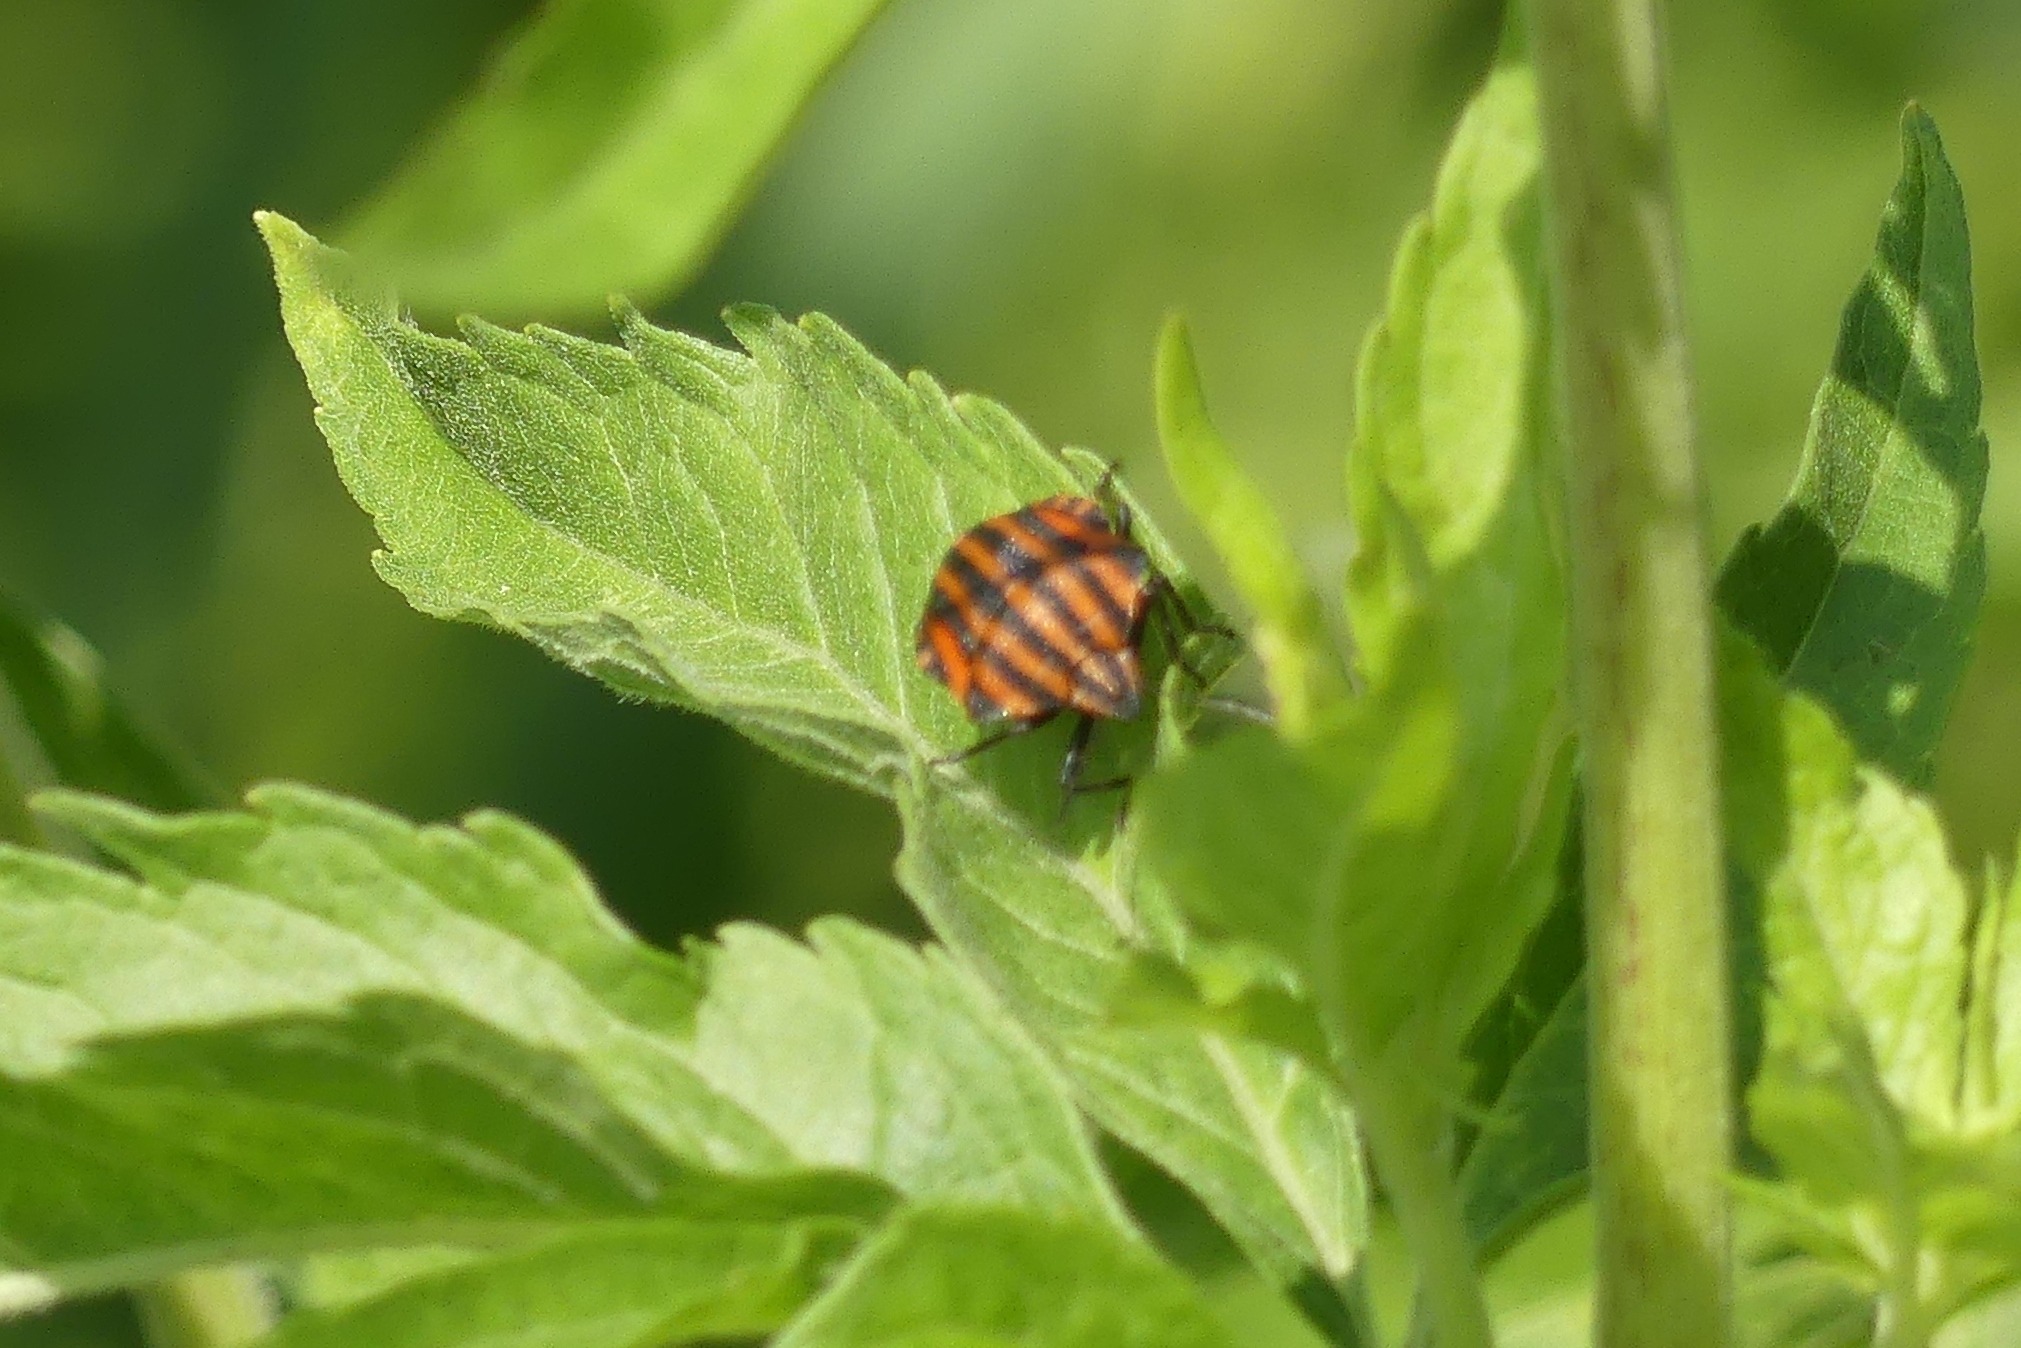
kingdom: Animalia
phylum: Arthropoda
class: Insecta
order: Hemiptera
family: Pentatomidae
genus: Graphosoma
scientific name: Graphosoma italicum
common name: Stribetæge
